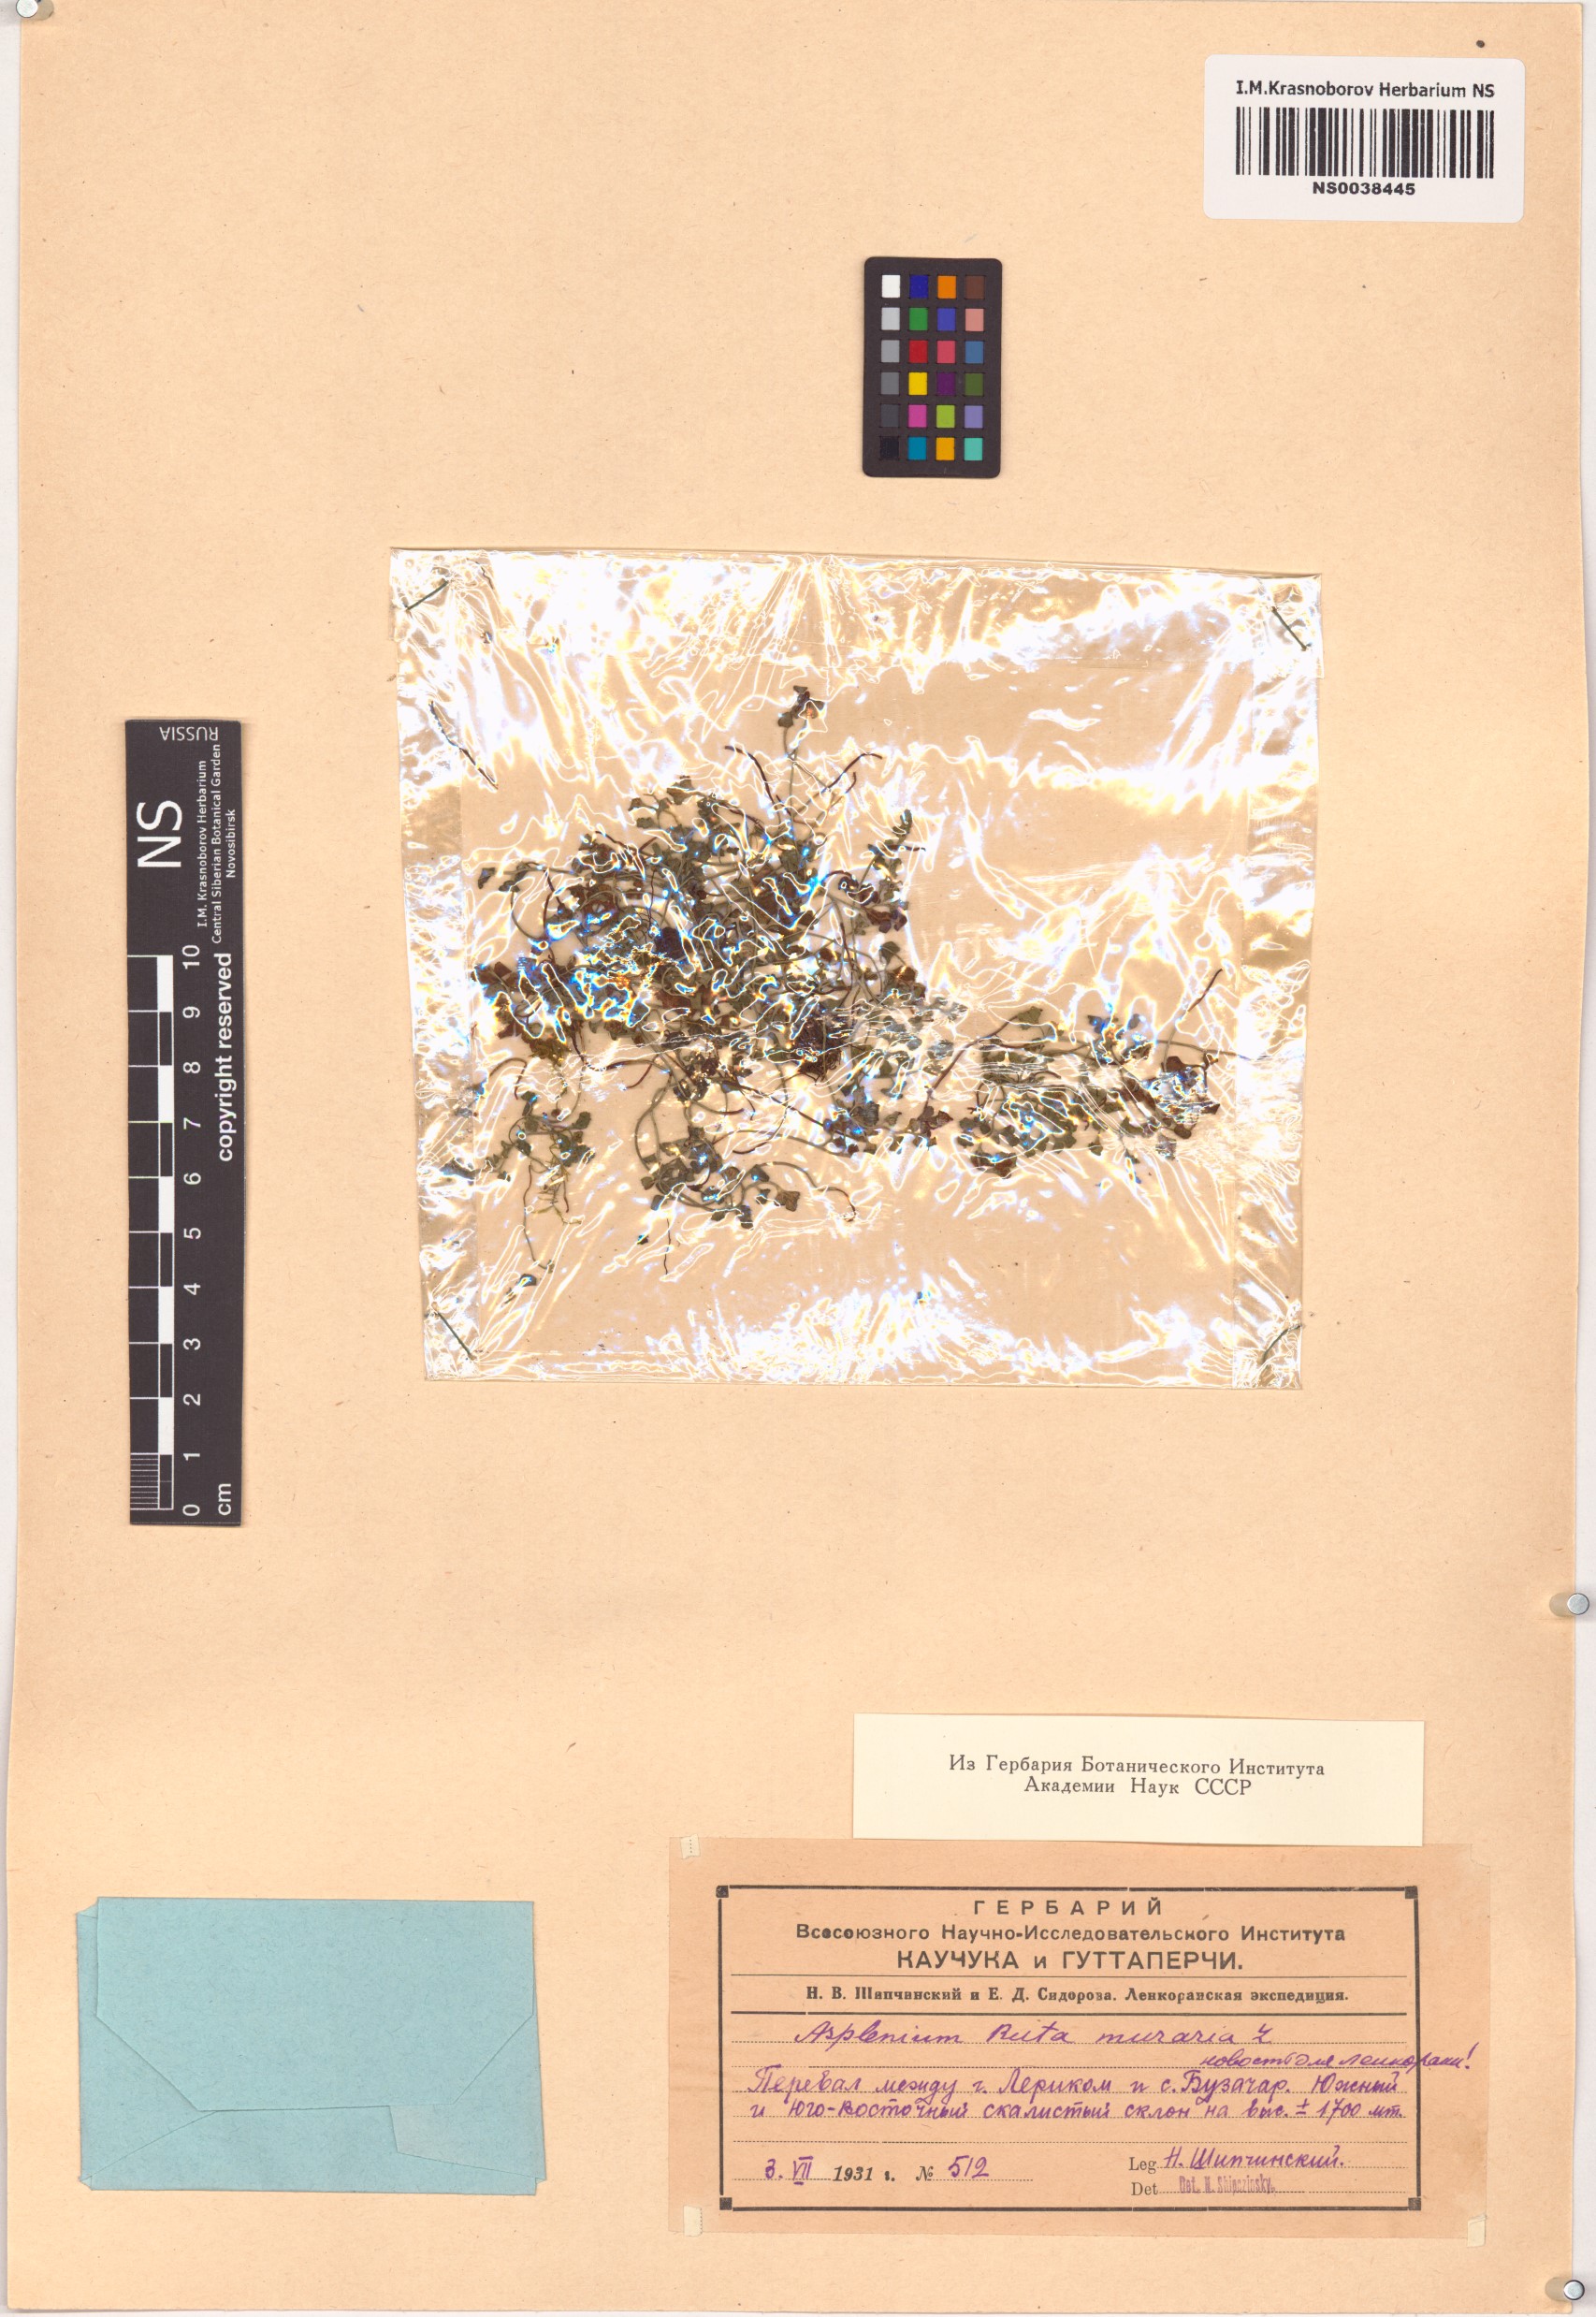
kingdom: Plantae
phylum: Tracheophyta
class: Polypodiopsida
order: Polypodiales
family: Aspleniaceae
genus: Asplenium
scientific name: Asplenium ruta-muraria
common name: Wall-rue
